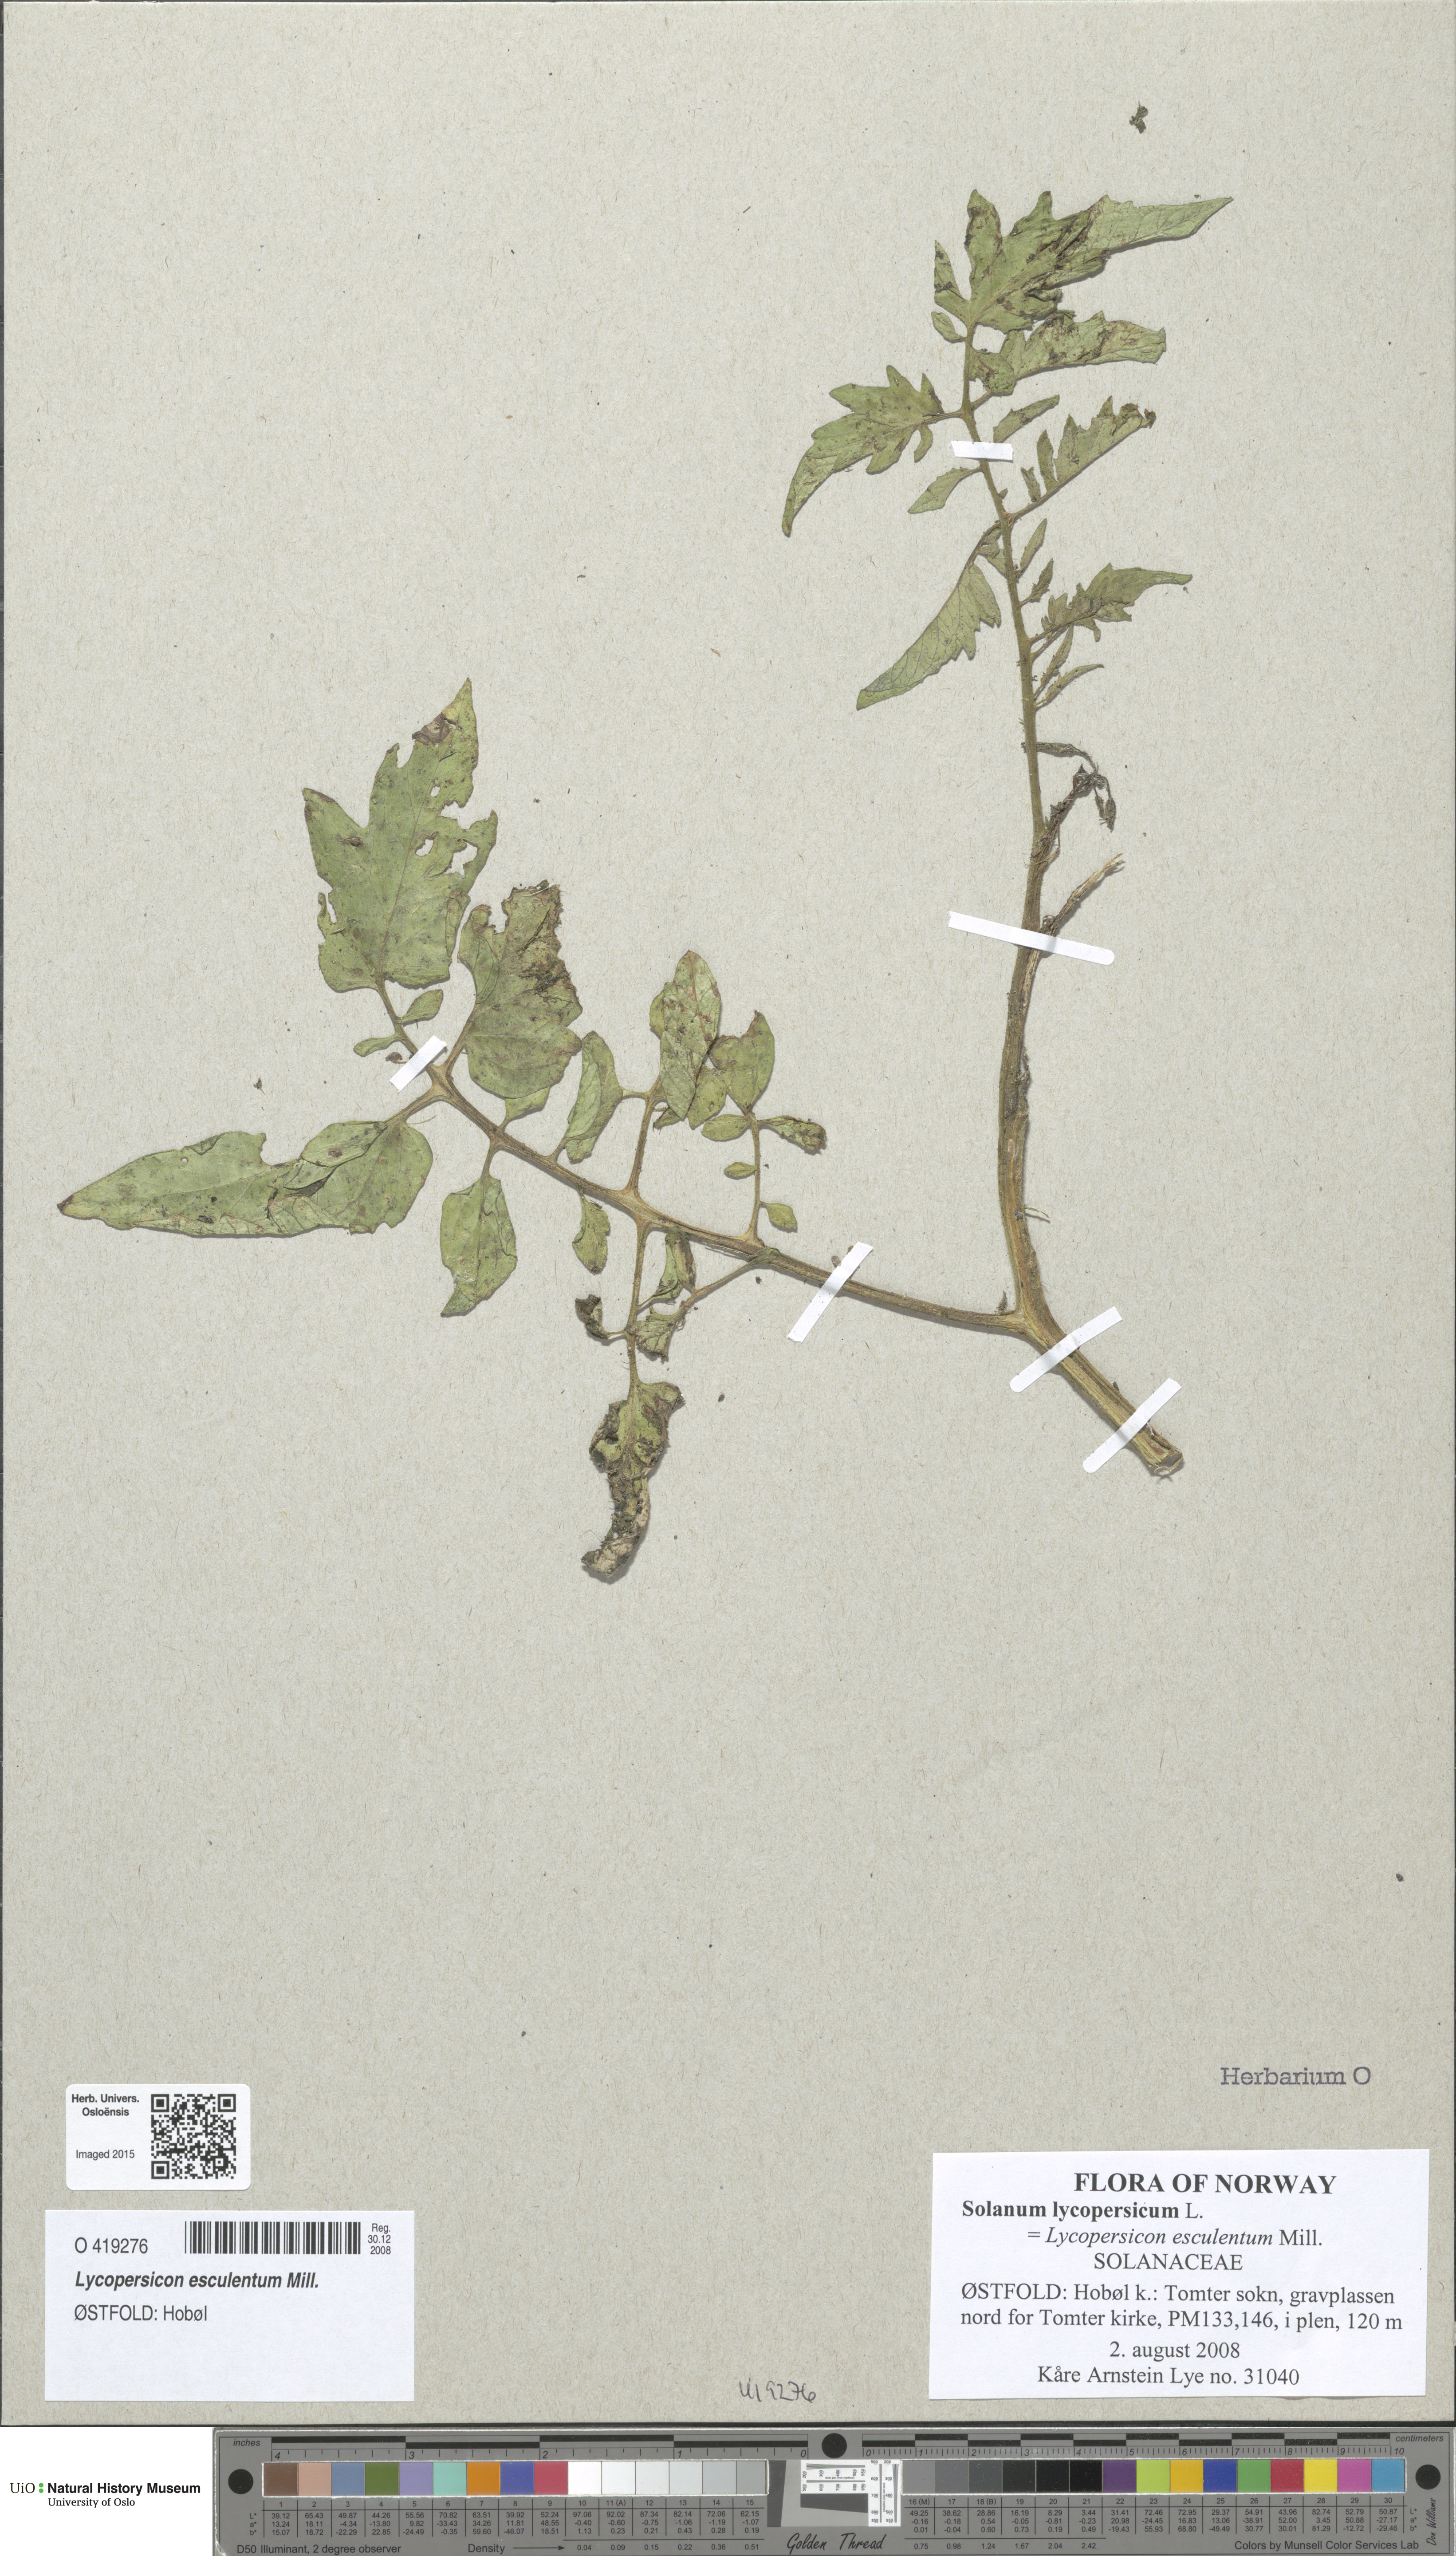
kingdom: Plantae
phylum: Tracheophyta
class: Magnoliopsida
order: Solanales
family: Solanaceae
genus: Solanum
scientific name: Solanum
